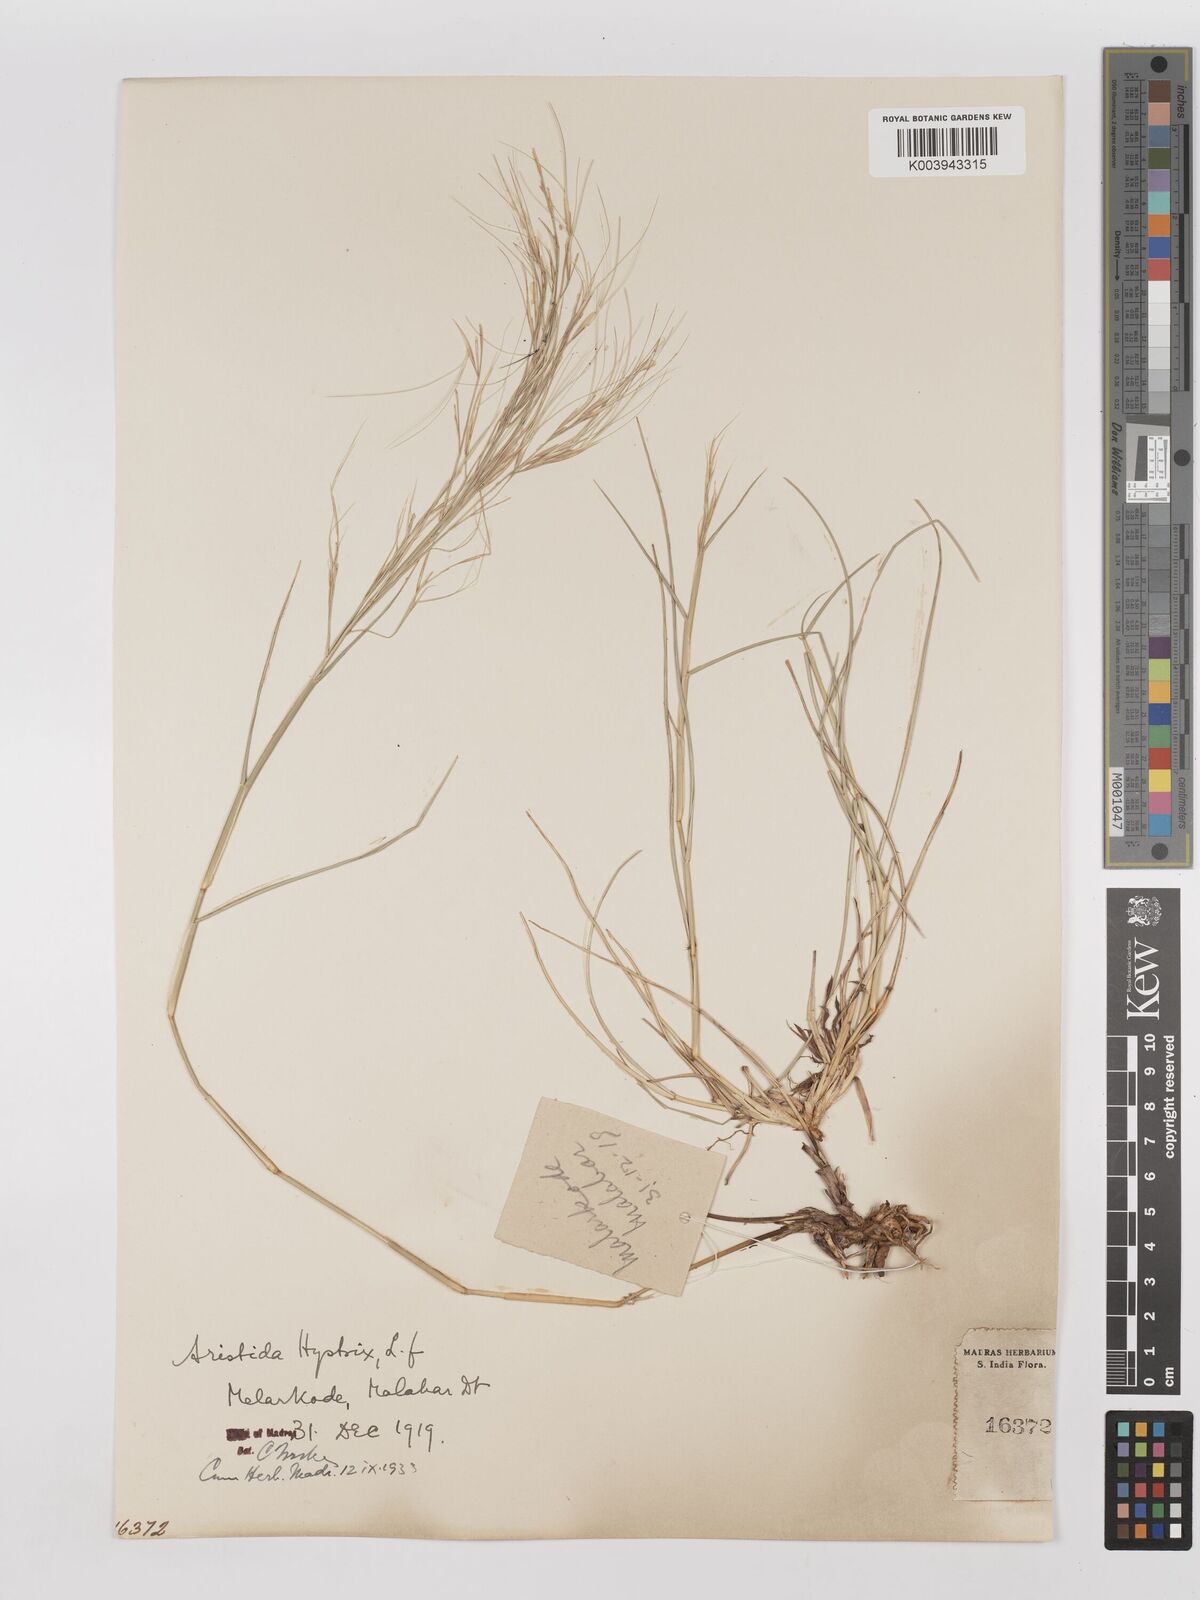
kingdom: Plantae
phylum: Tracheophyta
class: Liliopsida
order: Poales
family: Poaceae
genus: Aristida
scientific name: Aristida hystrix
